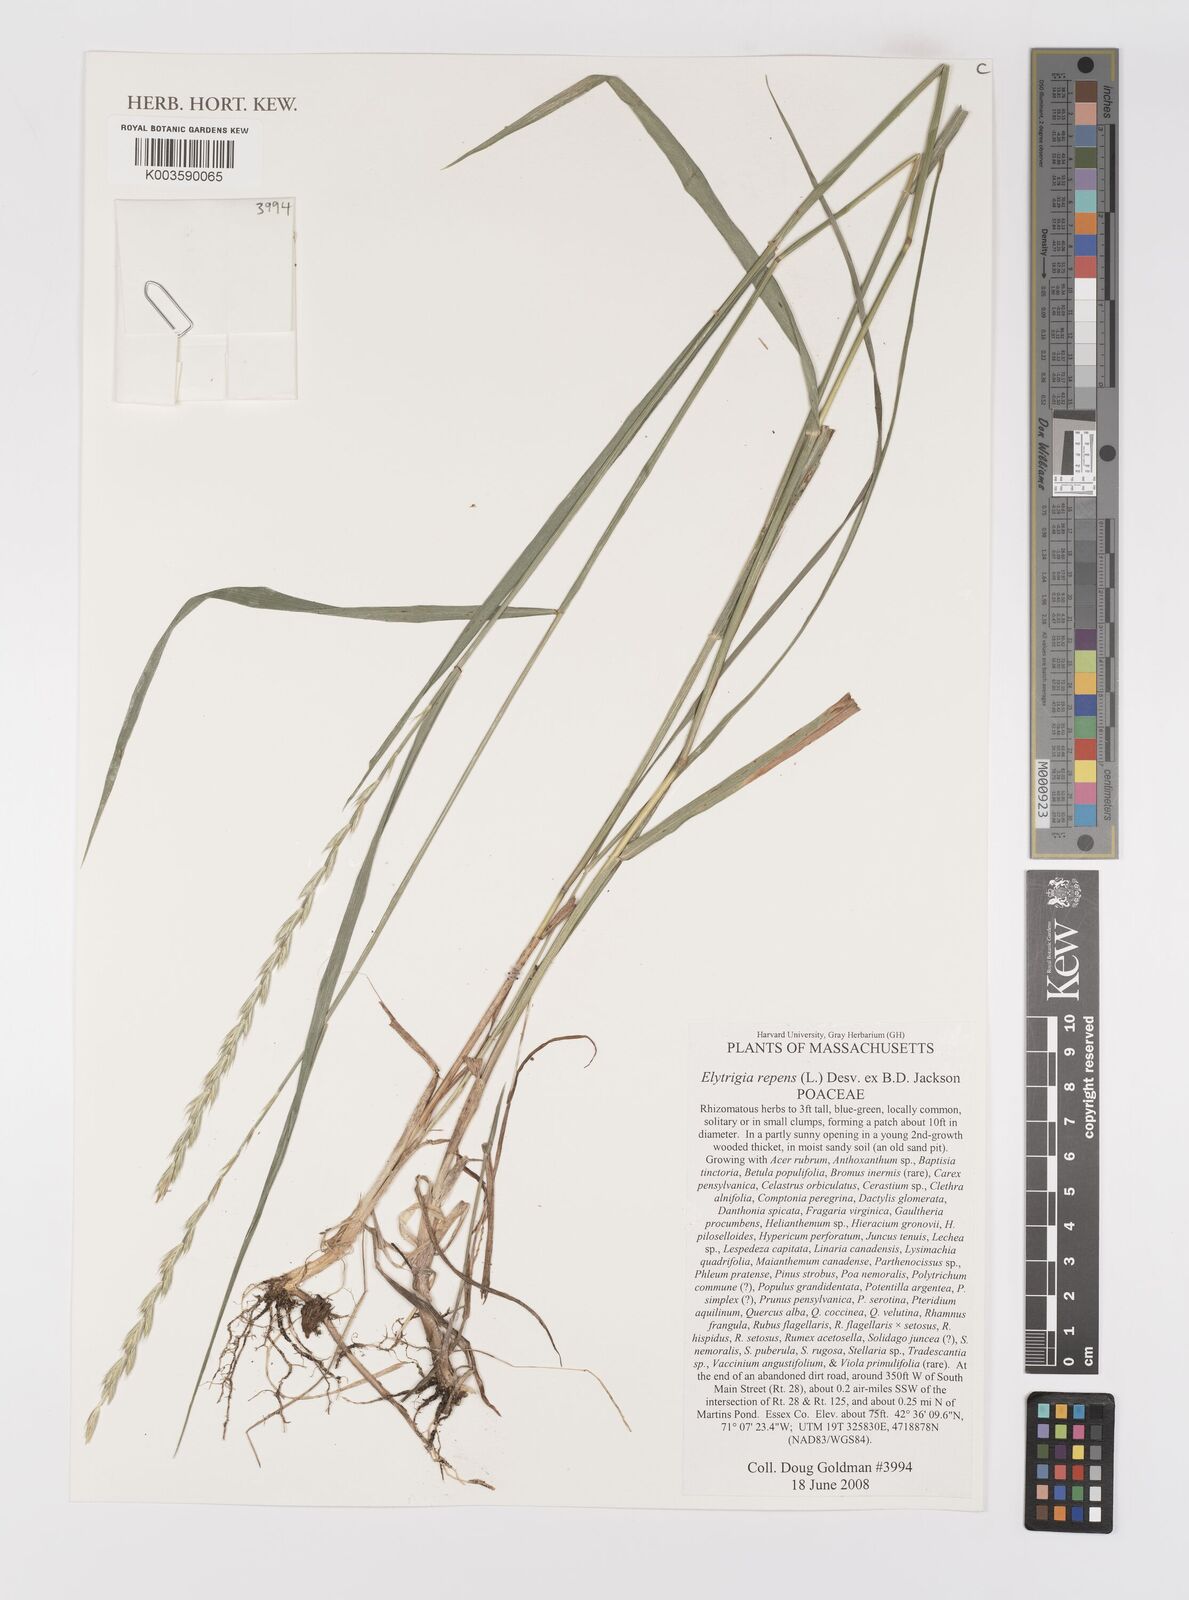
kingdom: Plantae
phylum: Tracheophyta
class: Liliopsida
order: Poales
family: Poaceae
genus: Elymus
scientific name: Elymus repens
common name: Quackgrass
